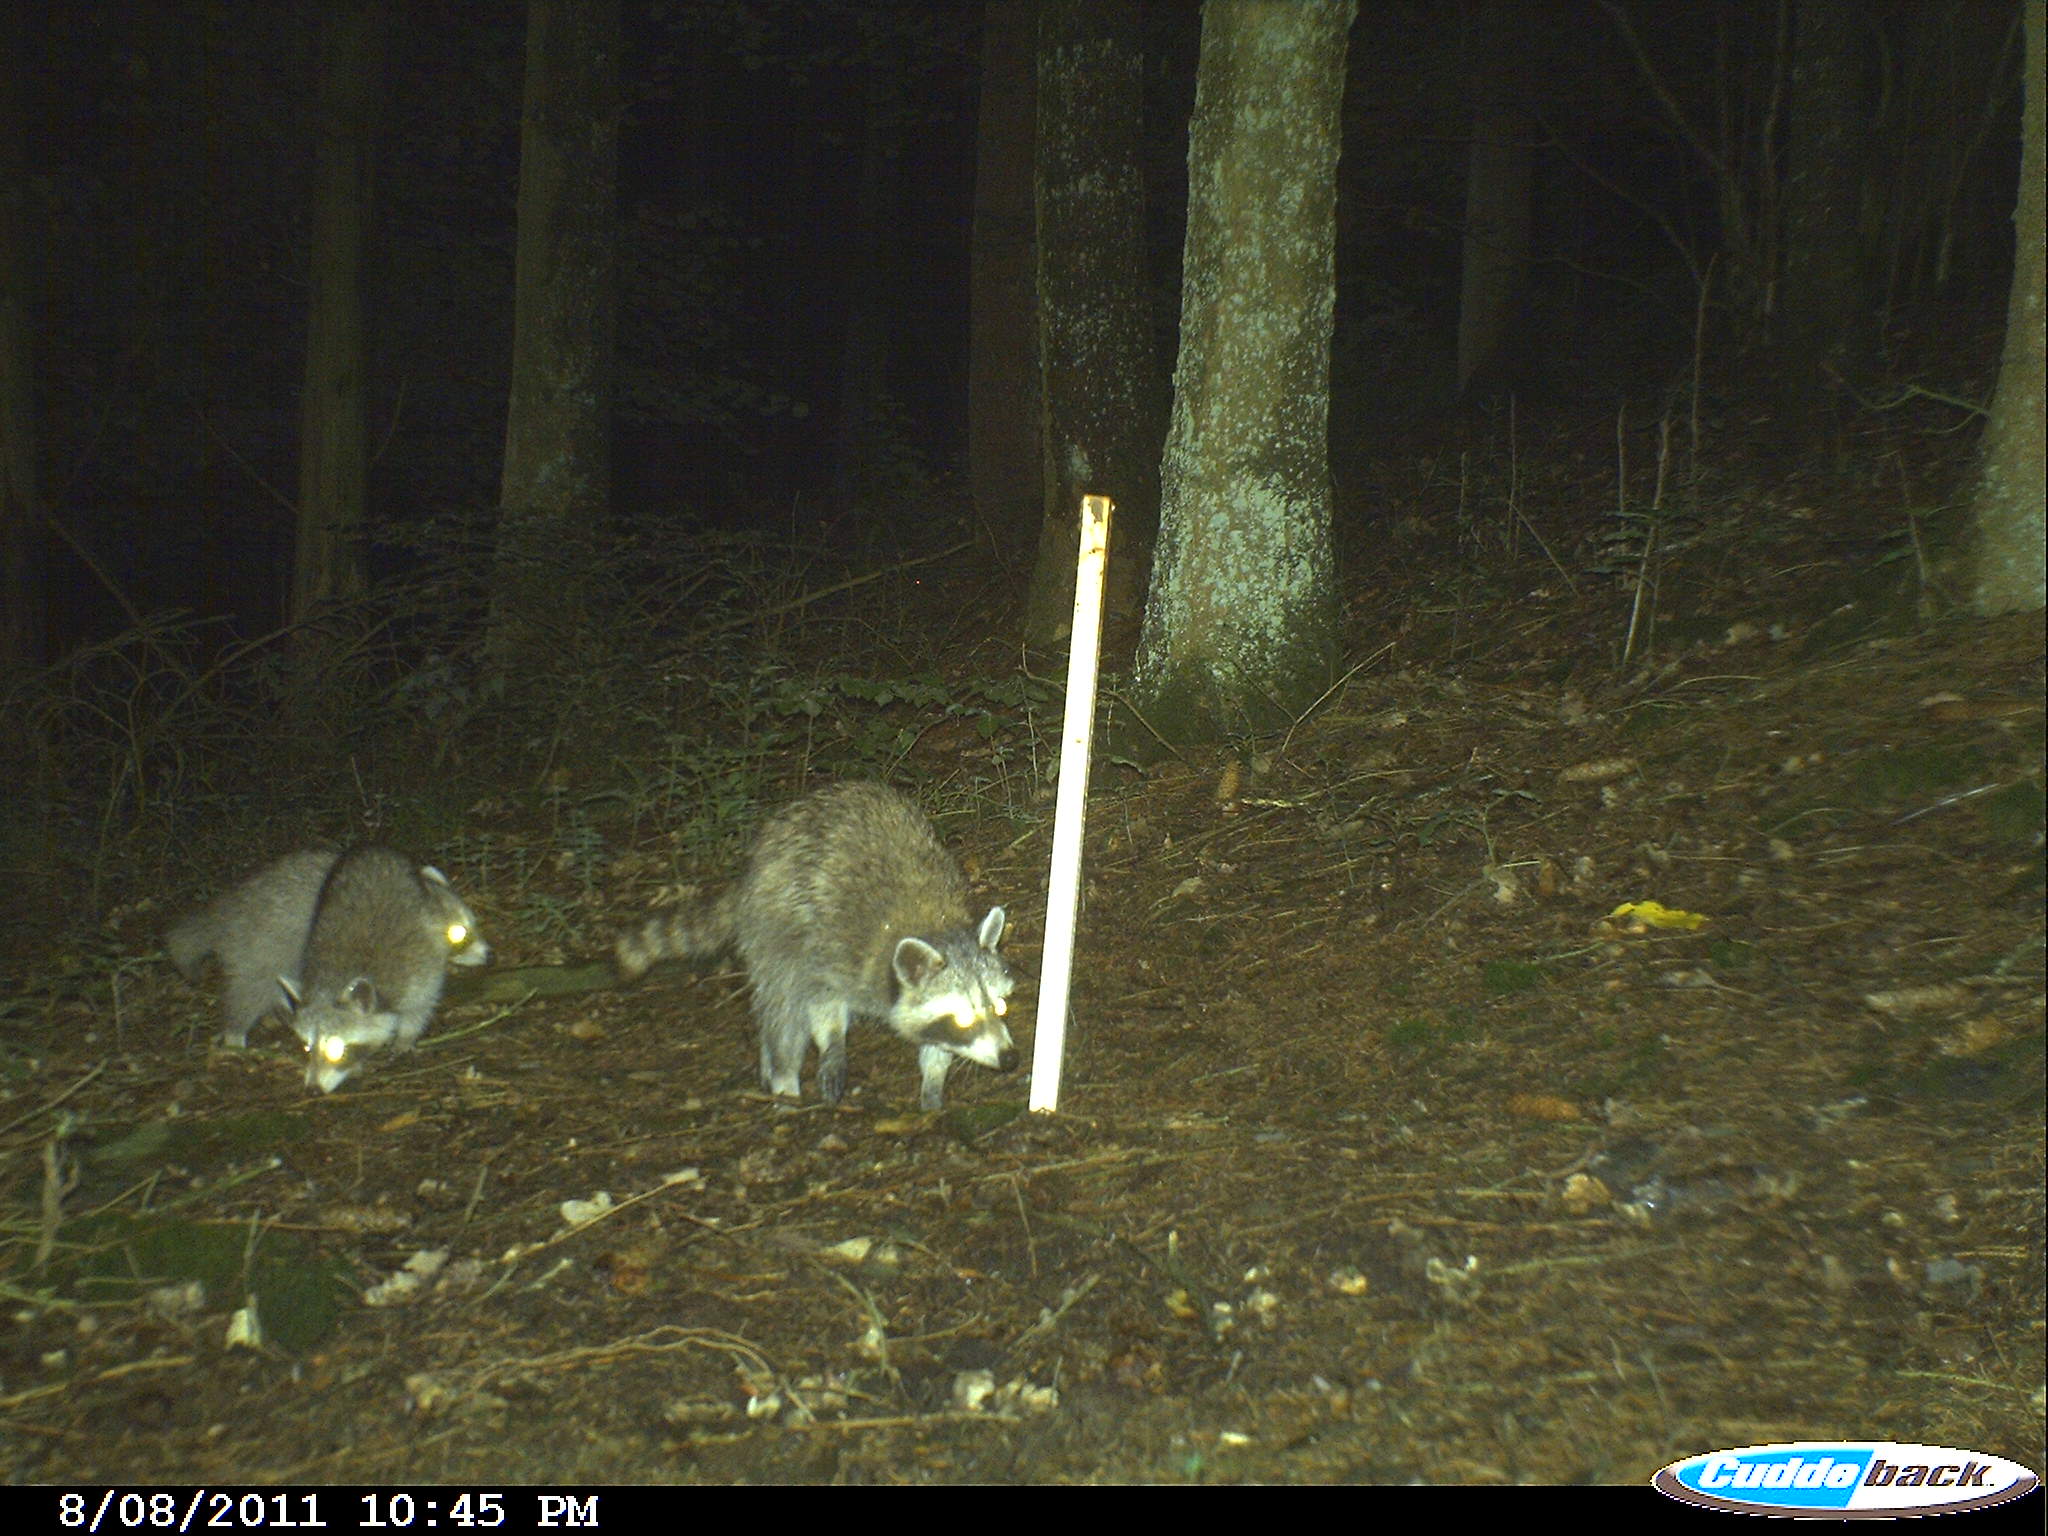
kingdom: Animalia
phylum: Chordata
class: Mammalia
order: Carnivora
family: Procyonidae
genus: Procyon
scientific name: Procyon lotor
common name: Raccoon
